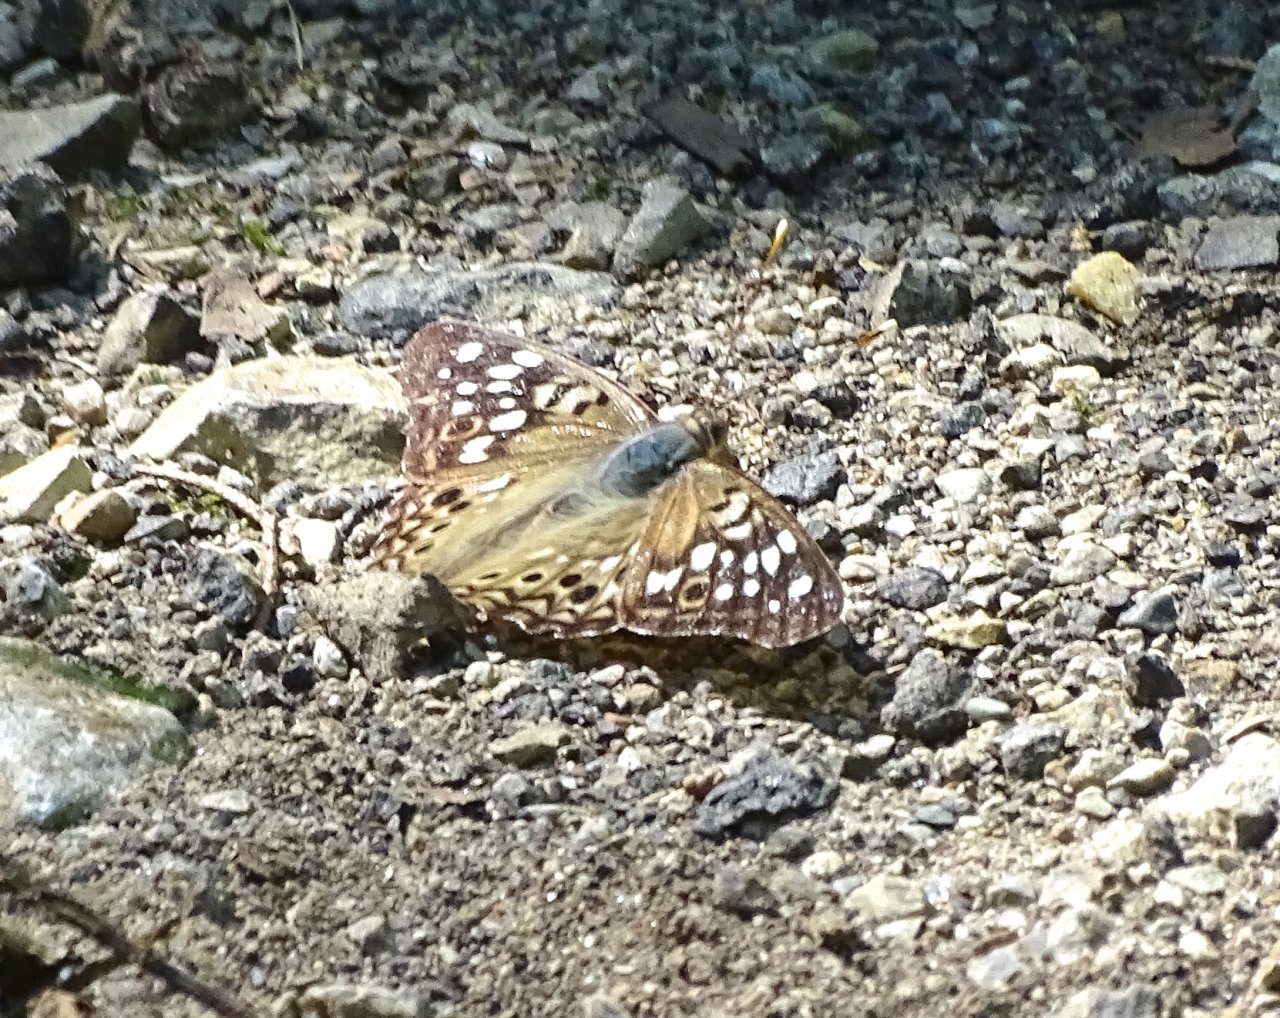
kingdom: Animalia
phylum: Arthropoda
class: Insecta
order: Lepidoptera
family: Nymphalidae
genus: Asterocampa
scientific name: Asterocampa celtis
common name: Hackberry Emperor
